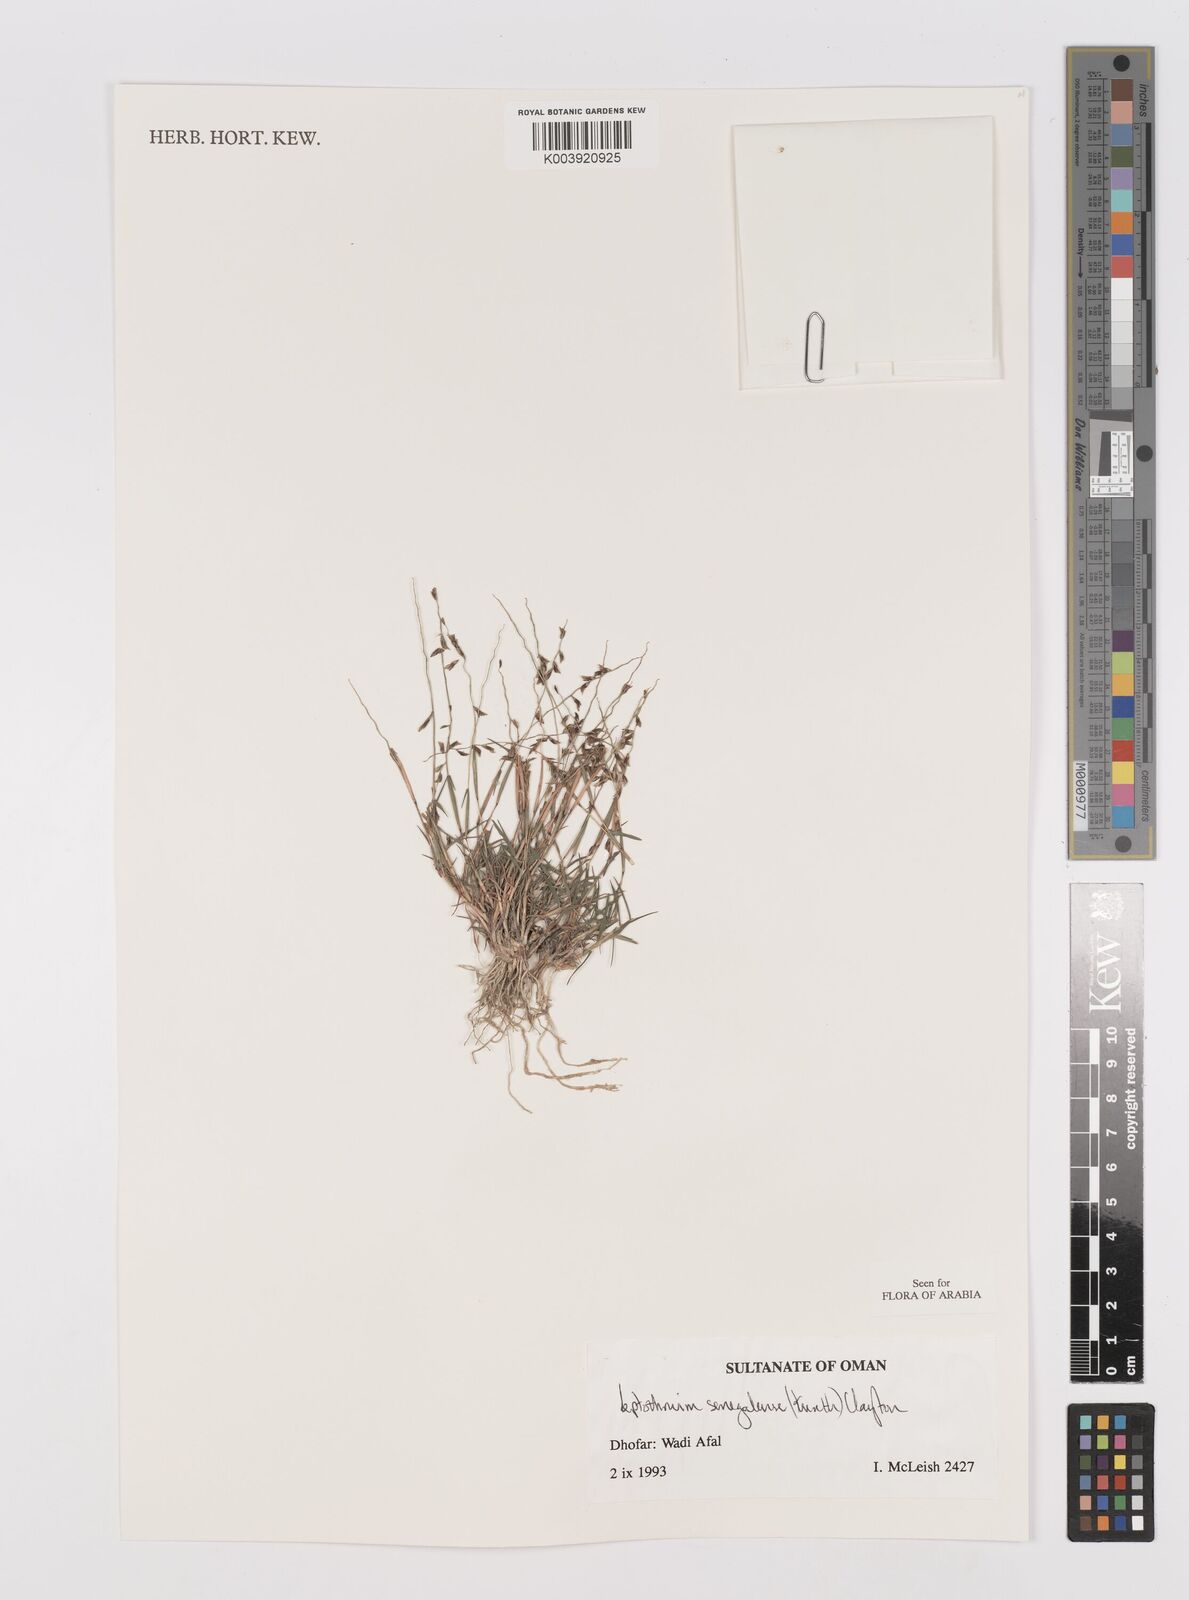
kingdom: Plantae
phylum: Tracheophyta
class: Liliopsida
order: Poales
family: Poaceae
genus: Leptothrium
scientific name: Leptothrium senegalense
